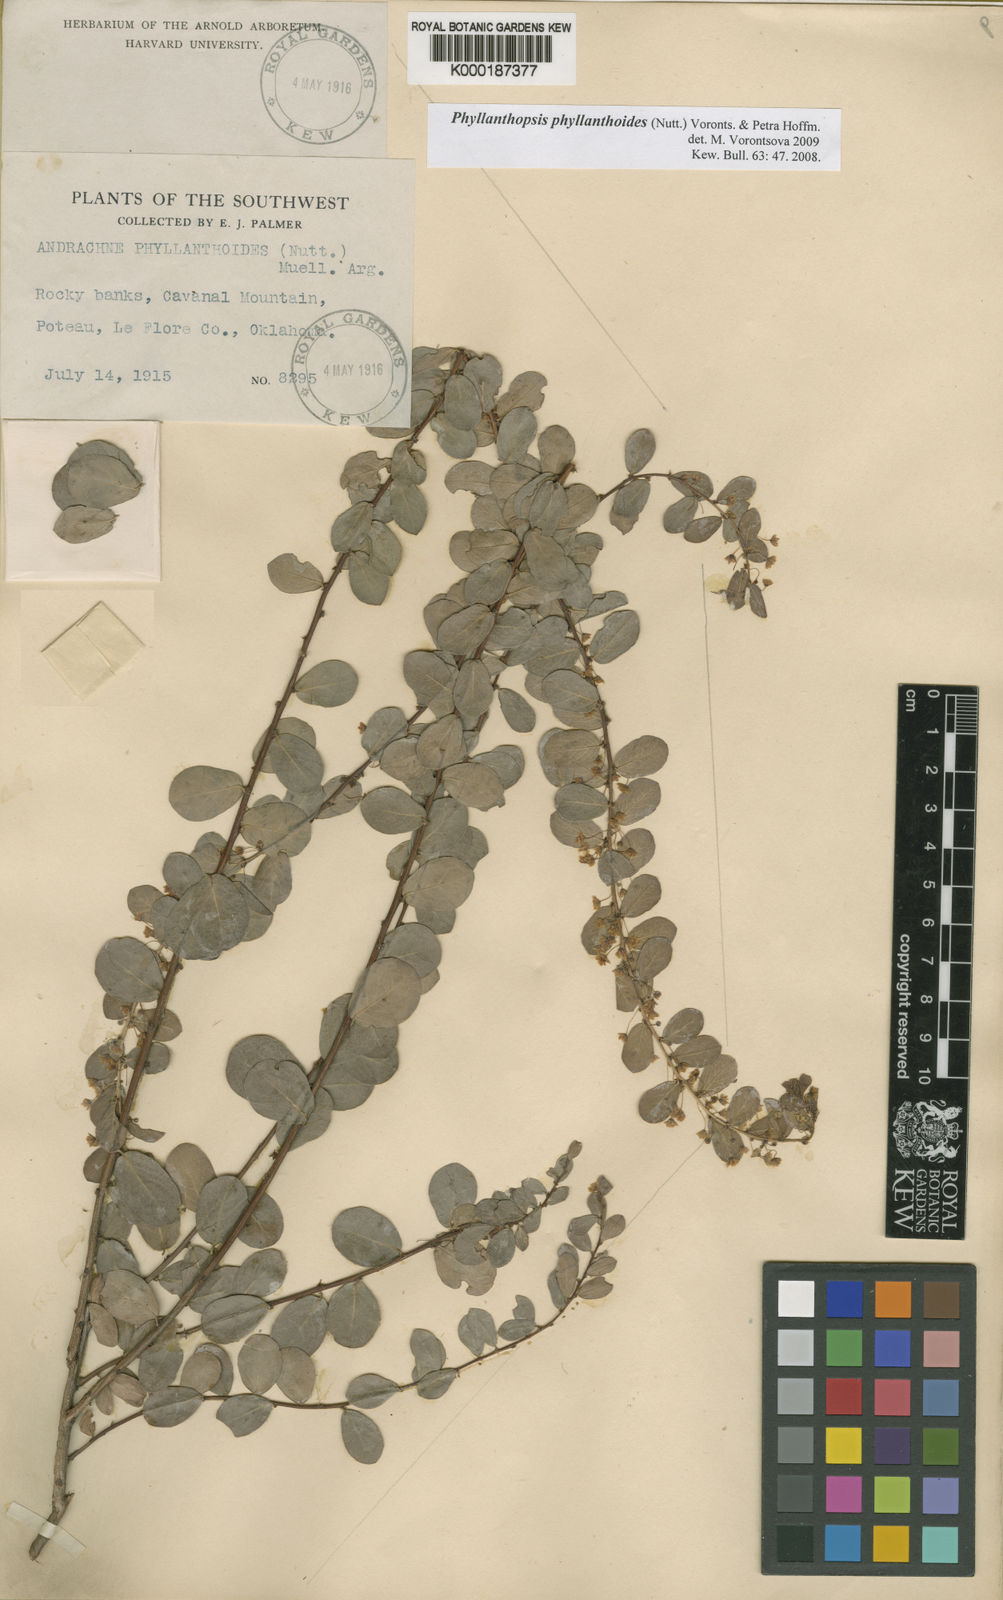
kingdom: Plantae
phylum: Tracheophyta
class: Magnoliopsida
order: Malpighiales
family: Phyllanthaceae
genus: Andrachne
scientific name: Andrachne
